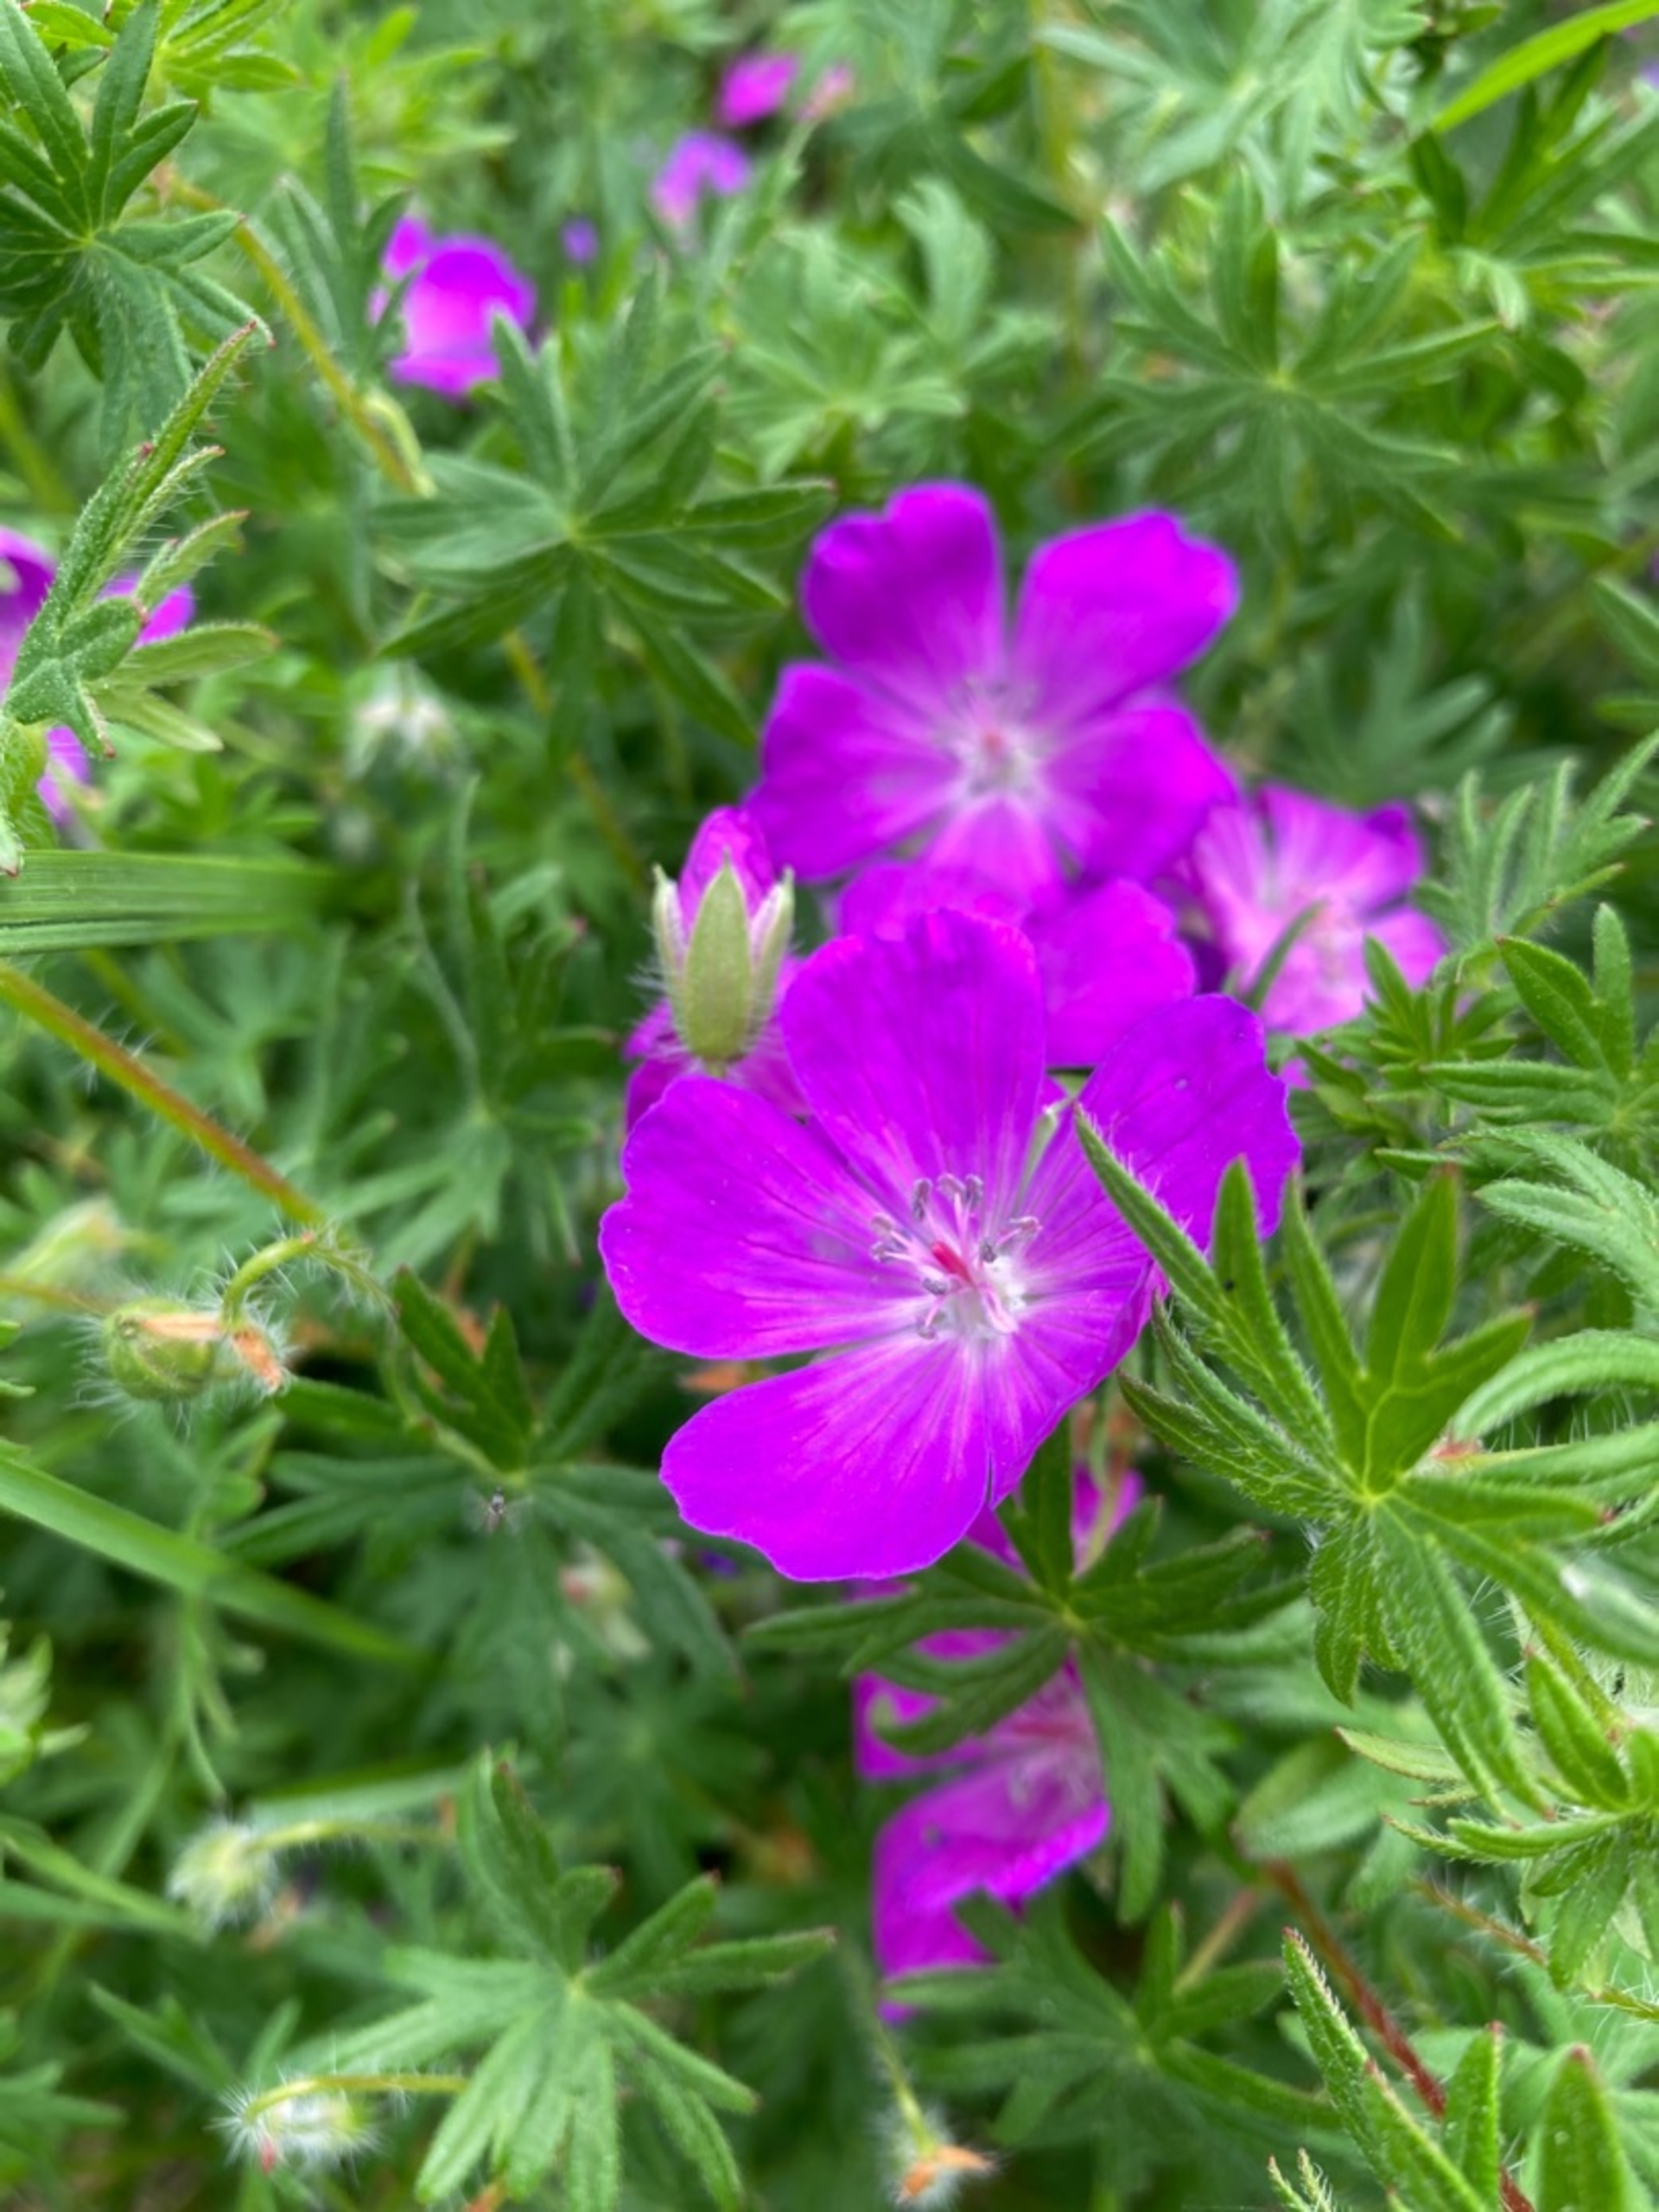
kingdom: Plantae
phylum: Tracheophyta
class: Magnoliopsida
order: Geraniales
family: Geraniaceae
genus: Geranium
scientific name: Geranium sanguineum
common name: Blodrød storkenæb
